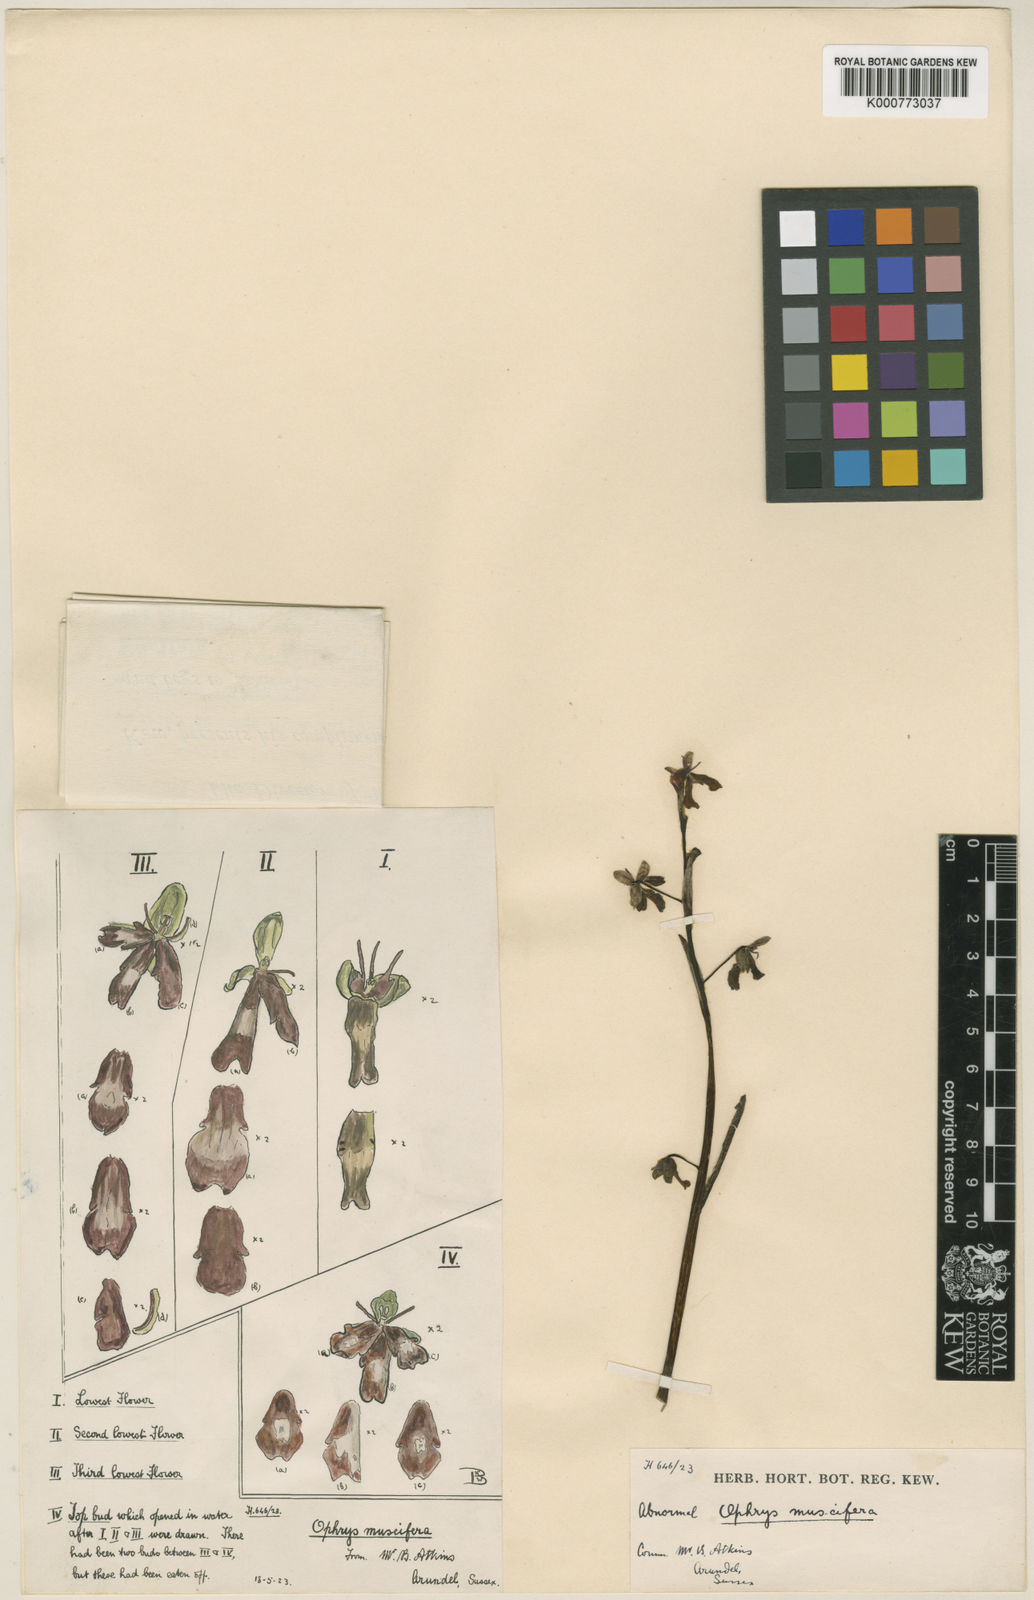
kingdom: Plantae
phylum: Tracheophyta
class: Liliopsida
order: Asparagales
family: Orchidaceae
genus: Ophrys
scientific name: Ophrys insectifera
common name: Fly orchid
